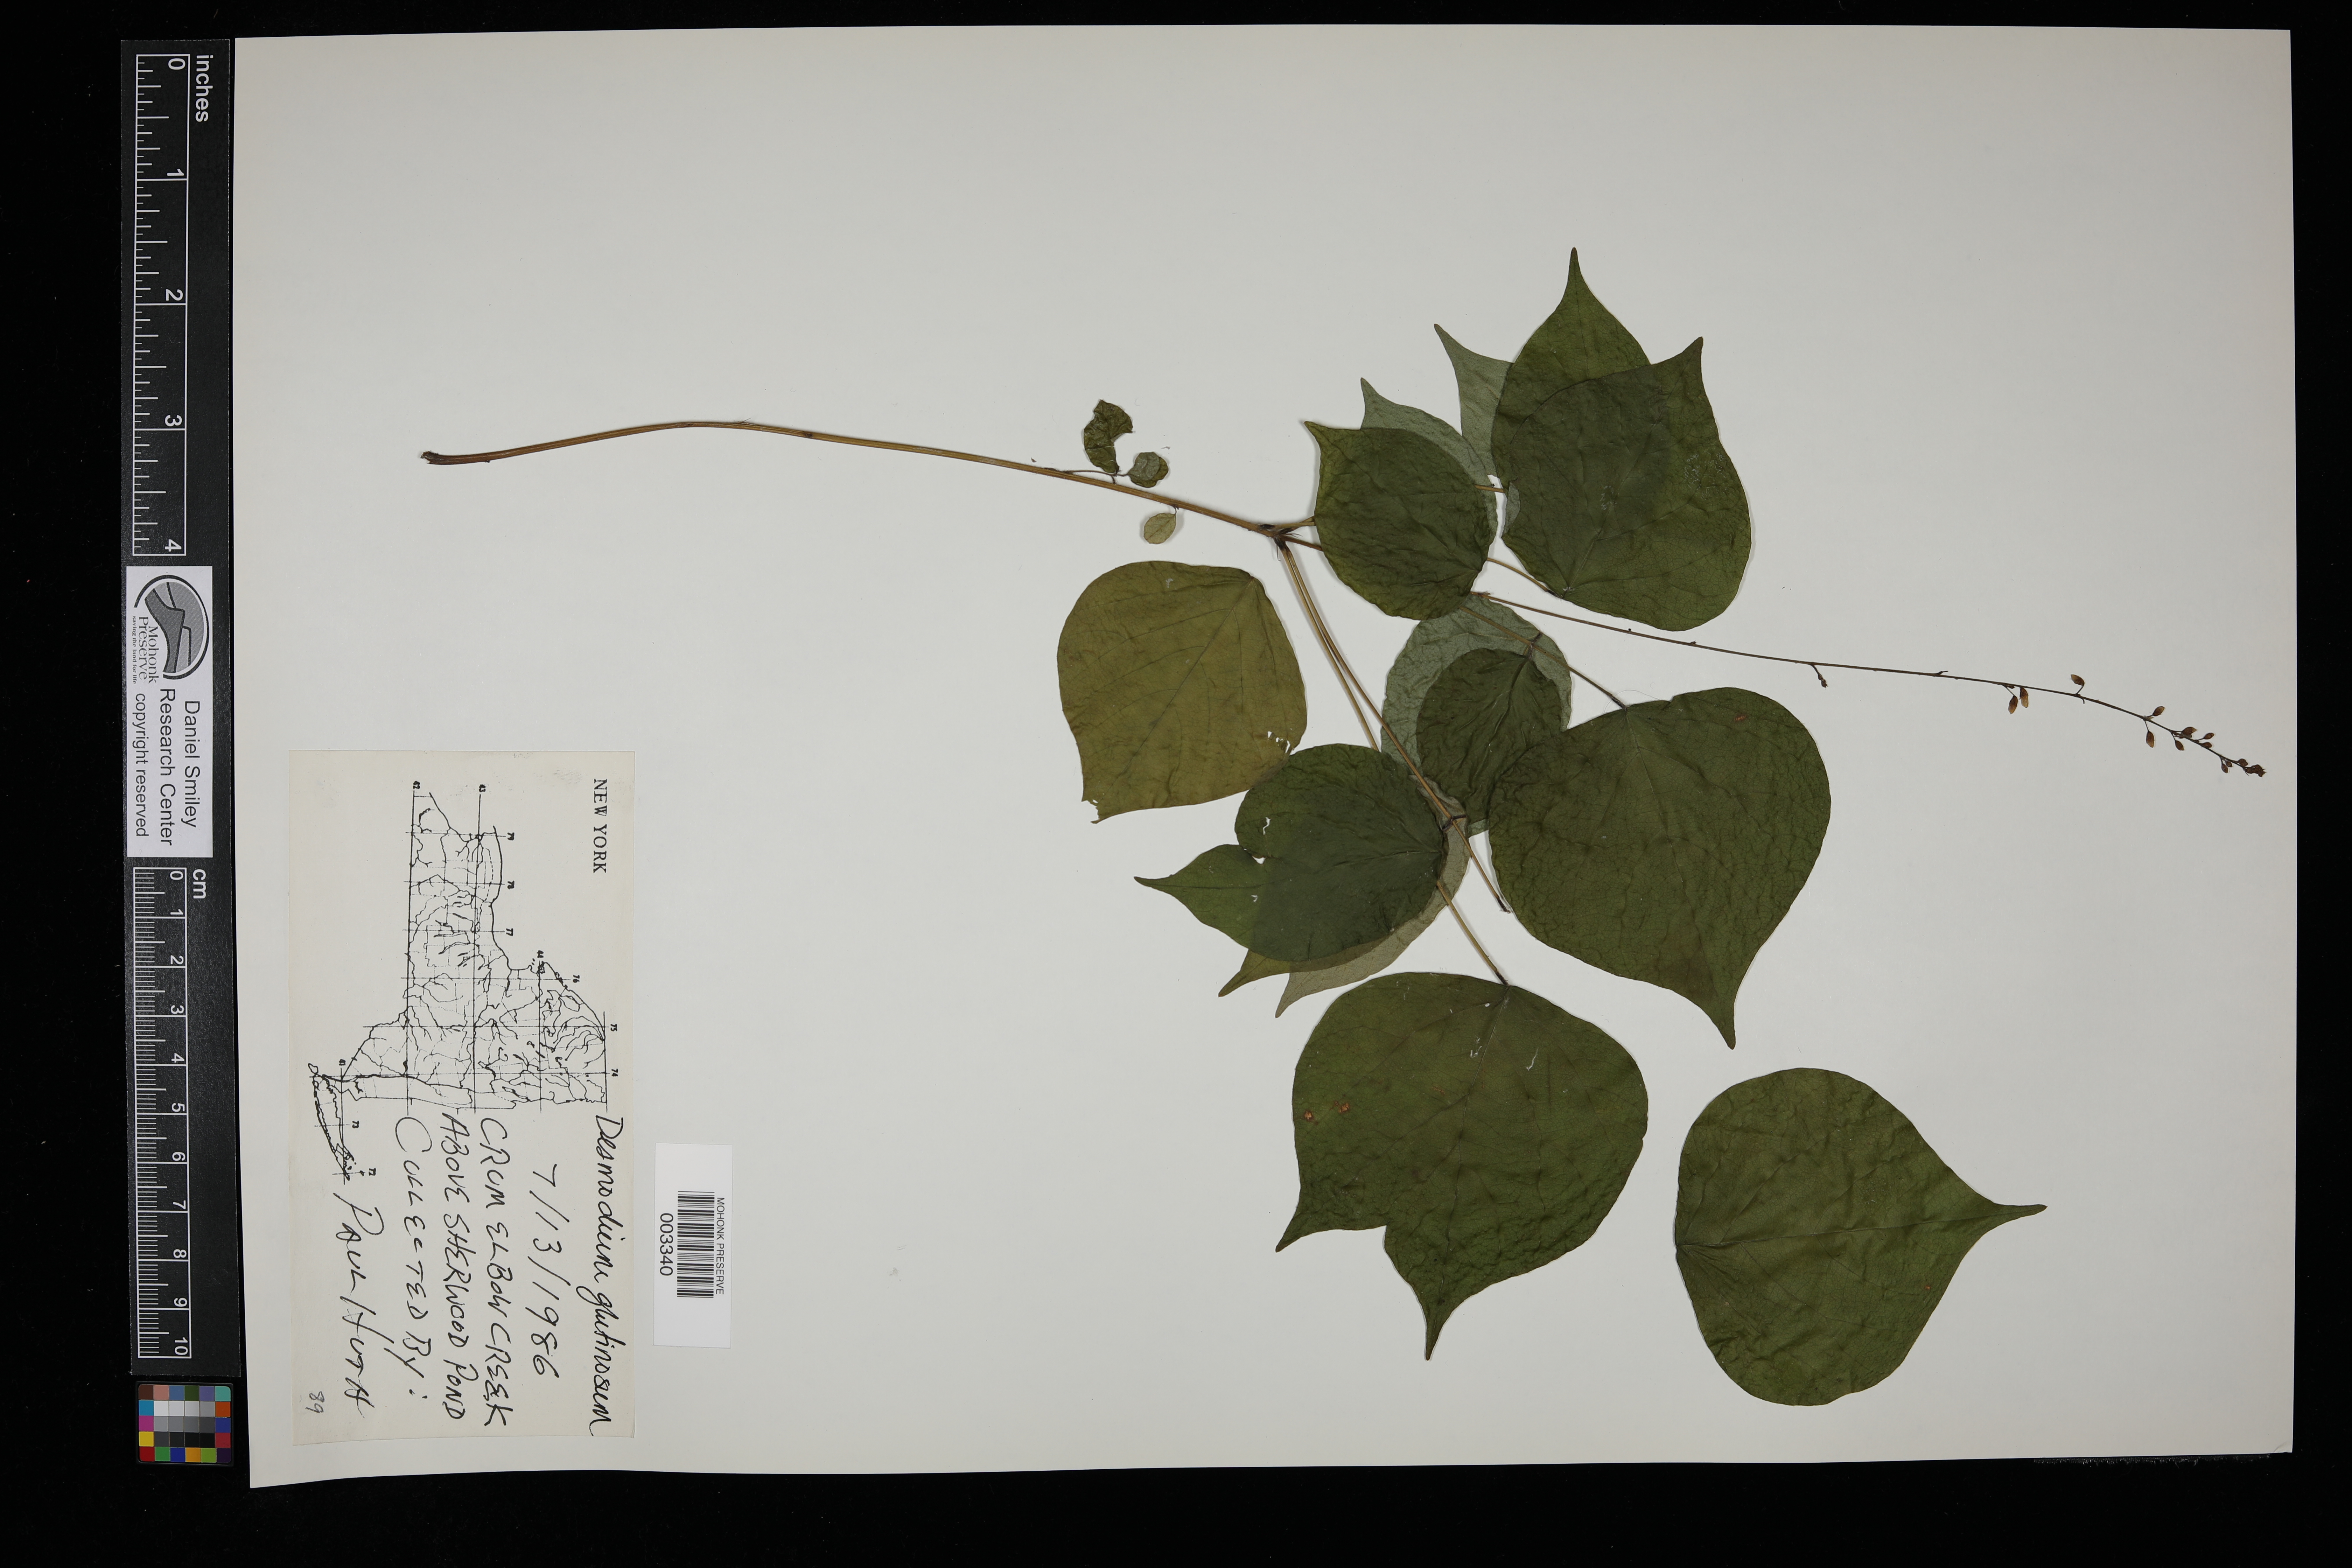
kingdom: Plantae
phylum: Tracheophyta
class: Magnoliopsida
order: Fabales
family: Fabaceae
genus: Hylodesmum
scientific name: Hylodesmum glutinosum
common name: Clustered-leaved tick-trefoil
